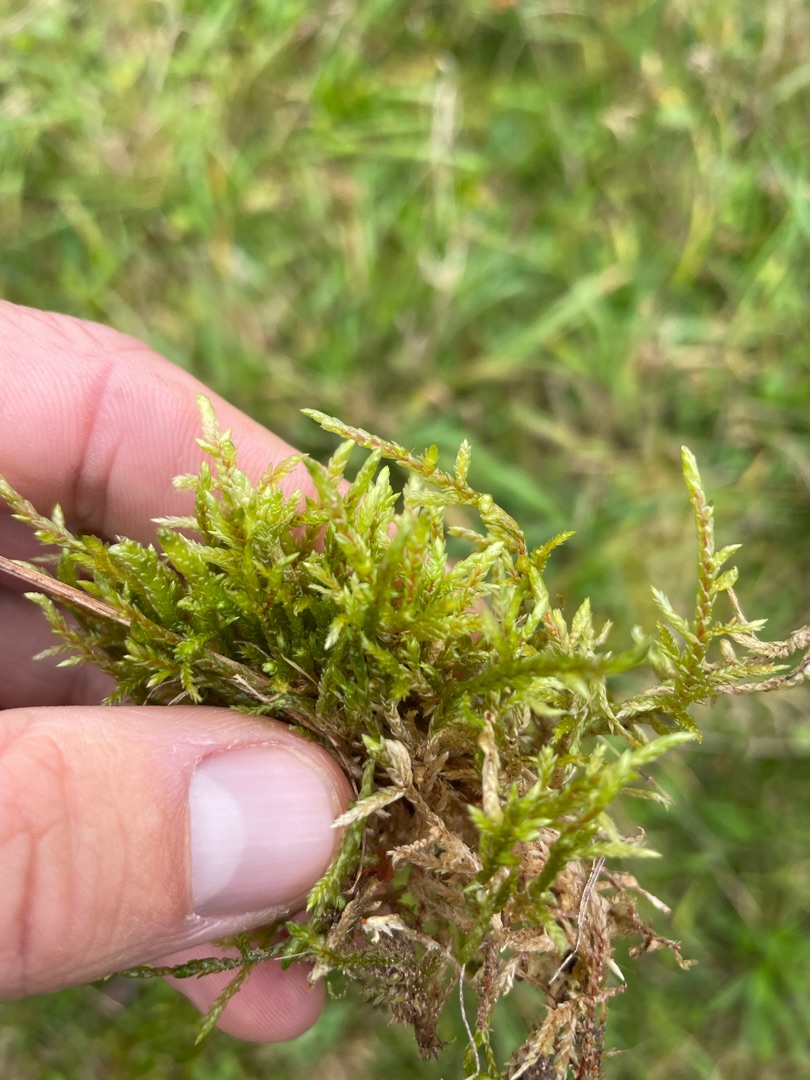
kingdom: Plantae
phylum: Bryophyta
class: Bryopsida
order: Hypnales
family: Hylocomiaceae
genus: Pleurozium
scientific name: Pleurozium schreberi
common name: Trind fyrremos
